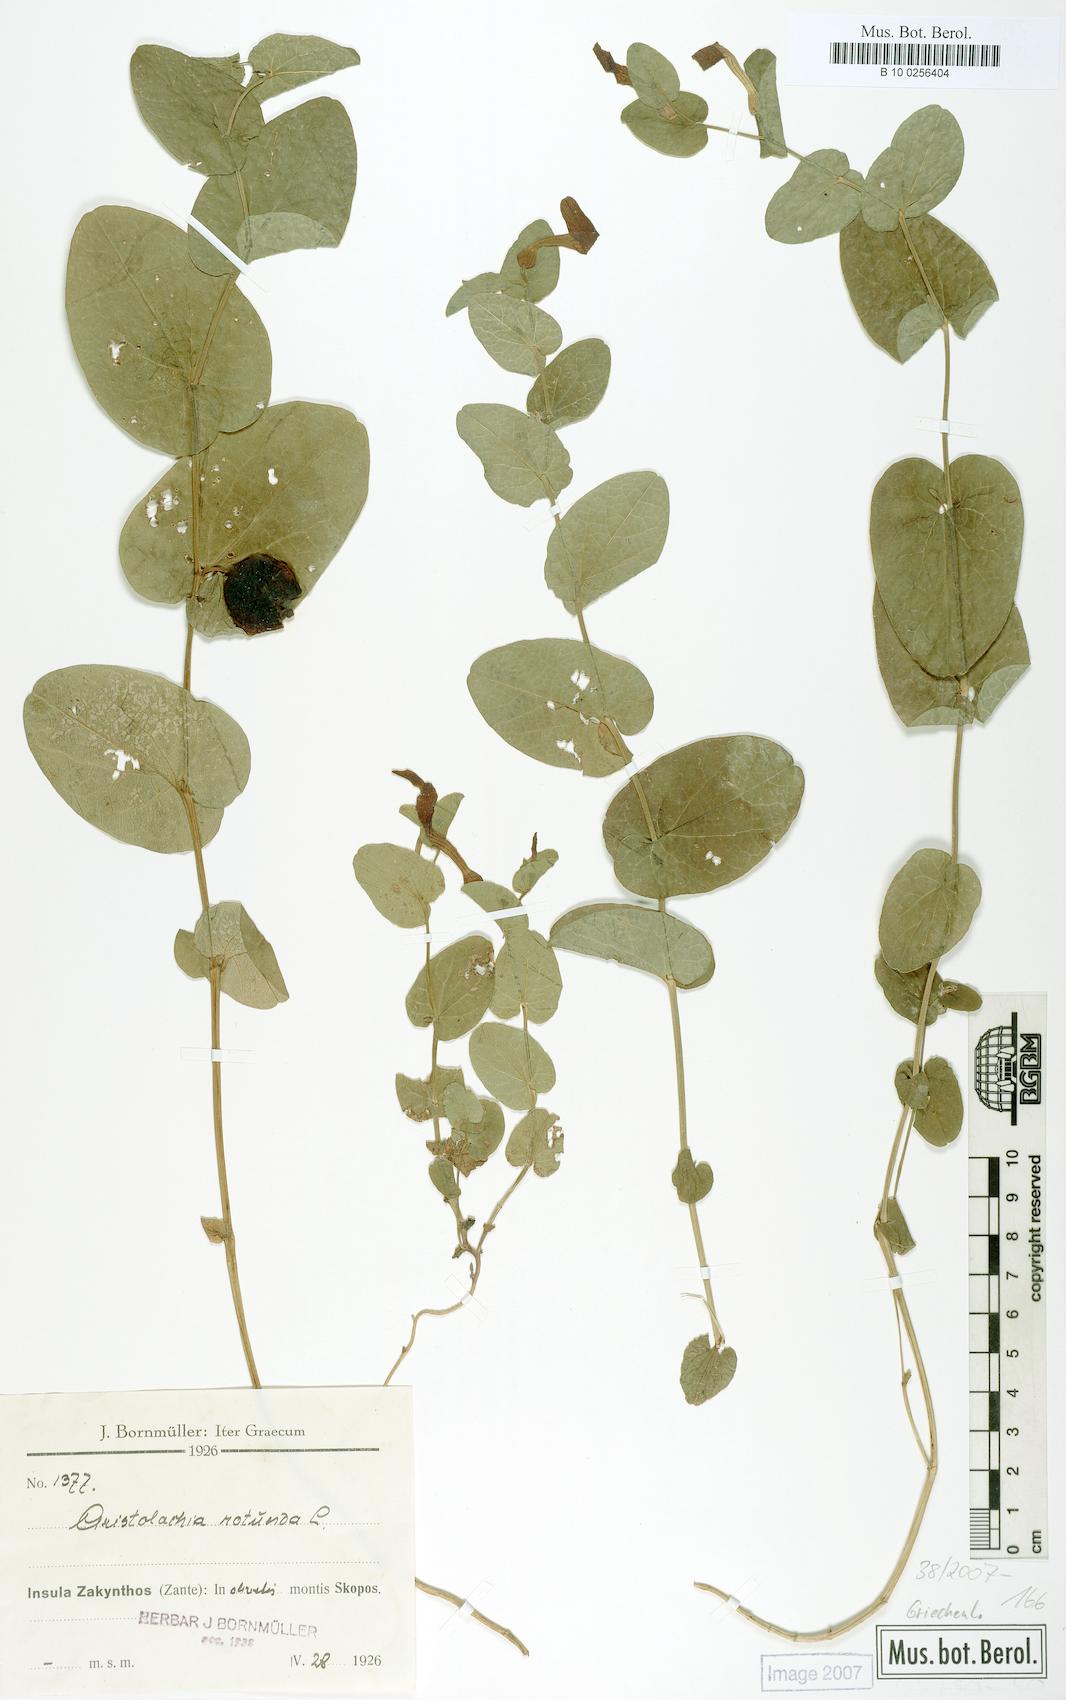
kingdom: Plantae
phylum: Tracheophyta
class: Magnoliopsida
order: Piperales
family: Aristolochiaceae
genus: Aristolochia
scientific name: Aristolochia rotunda
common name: Smearwort
